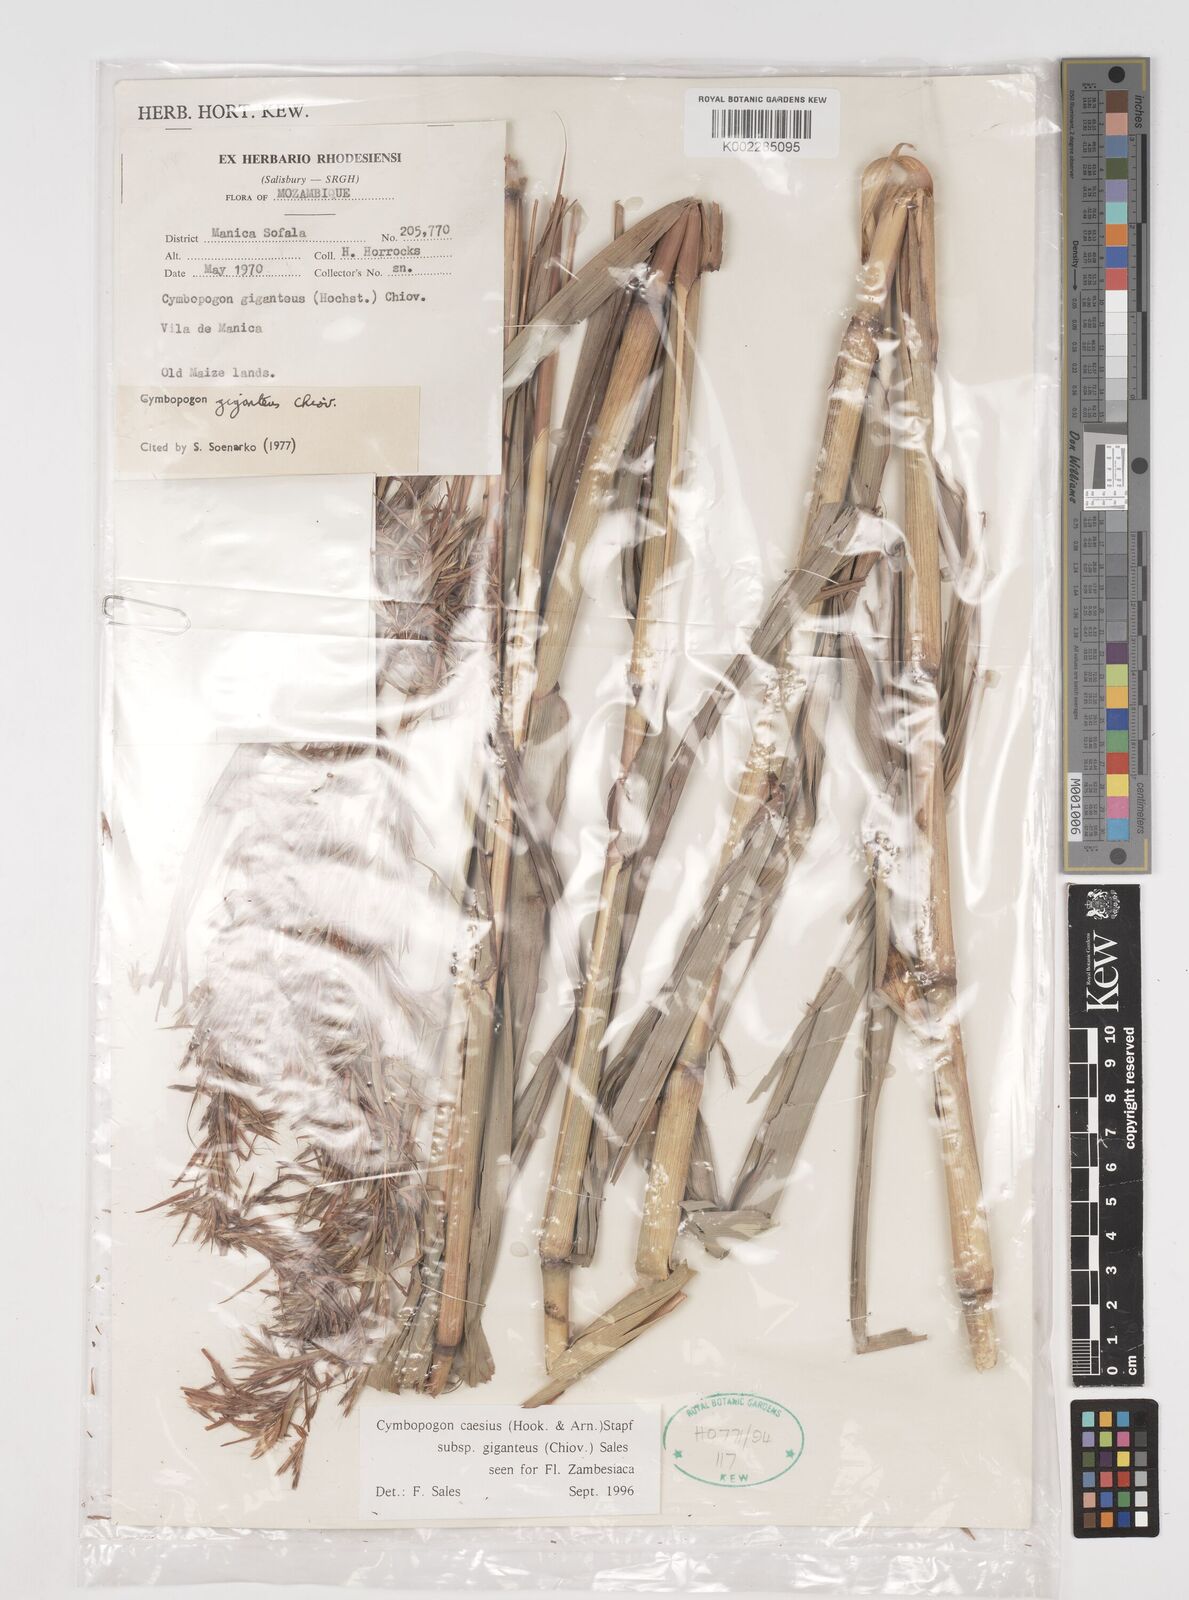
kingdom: Plantae
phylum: Tracheophyta
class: Liliopsida
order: Poales
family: Poaceae
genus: Cymbopogon
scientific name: Cymbopogon giganteus
